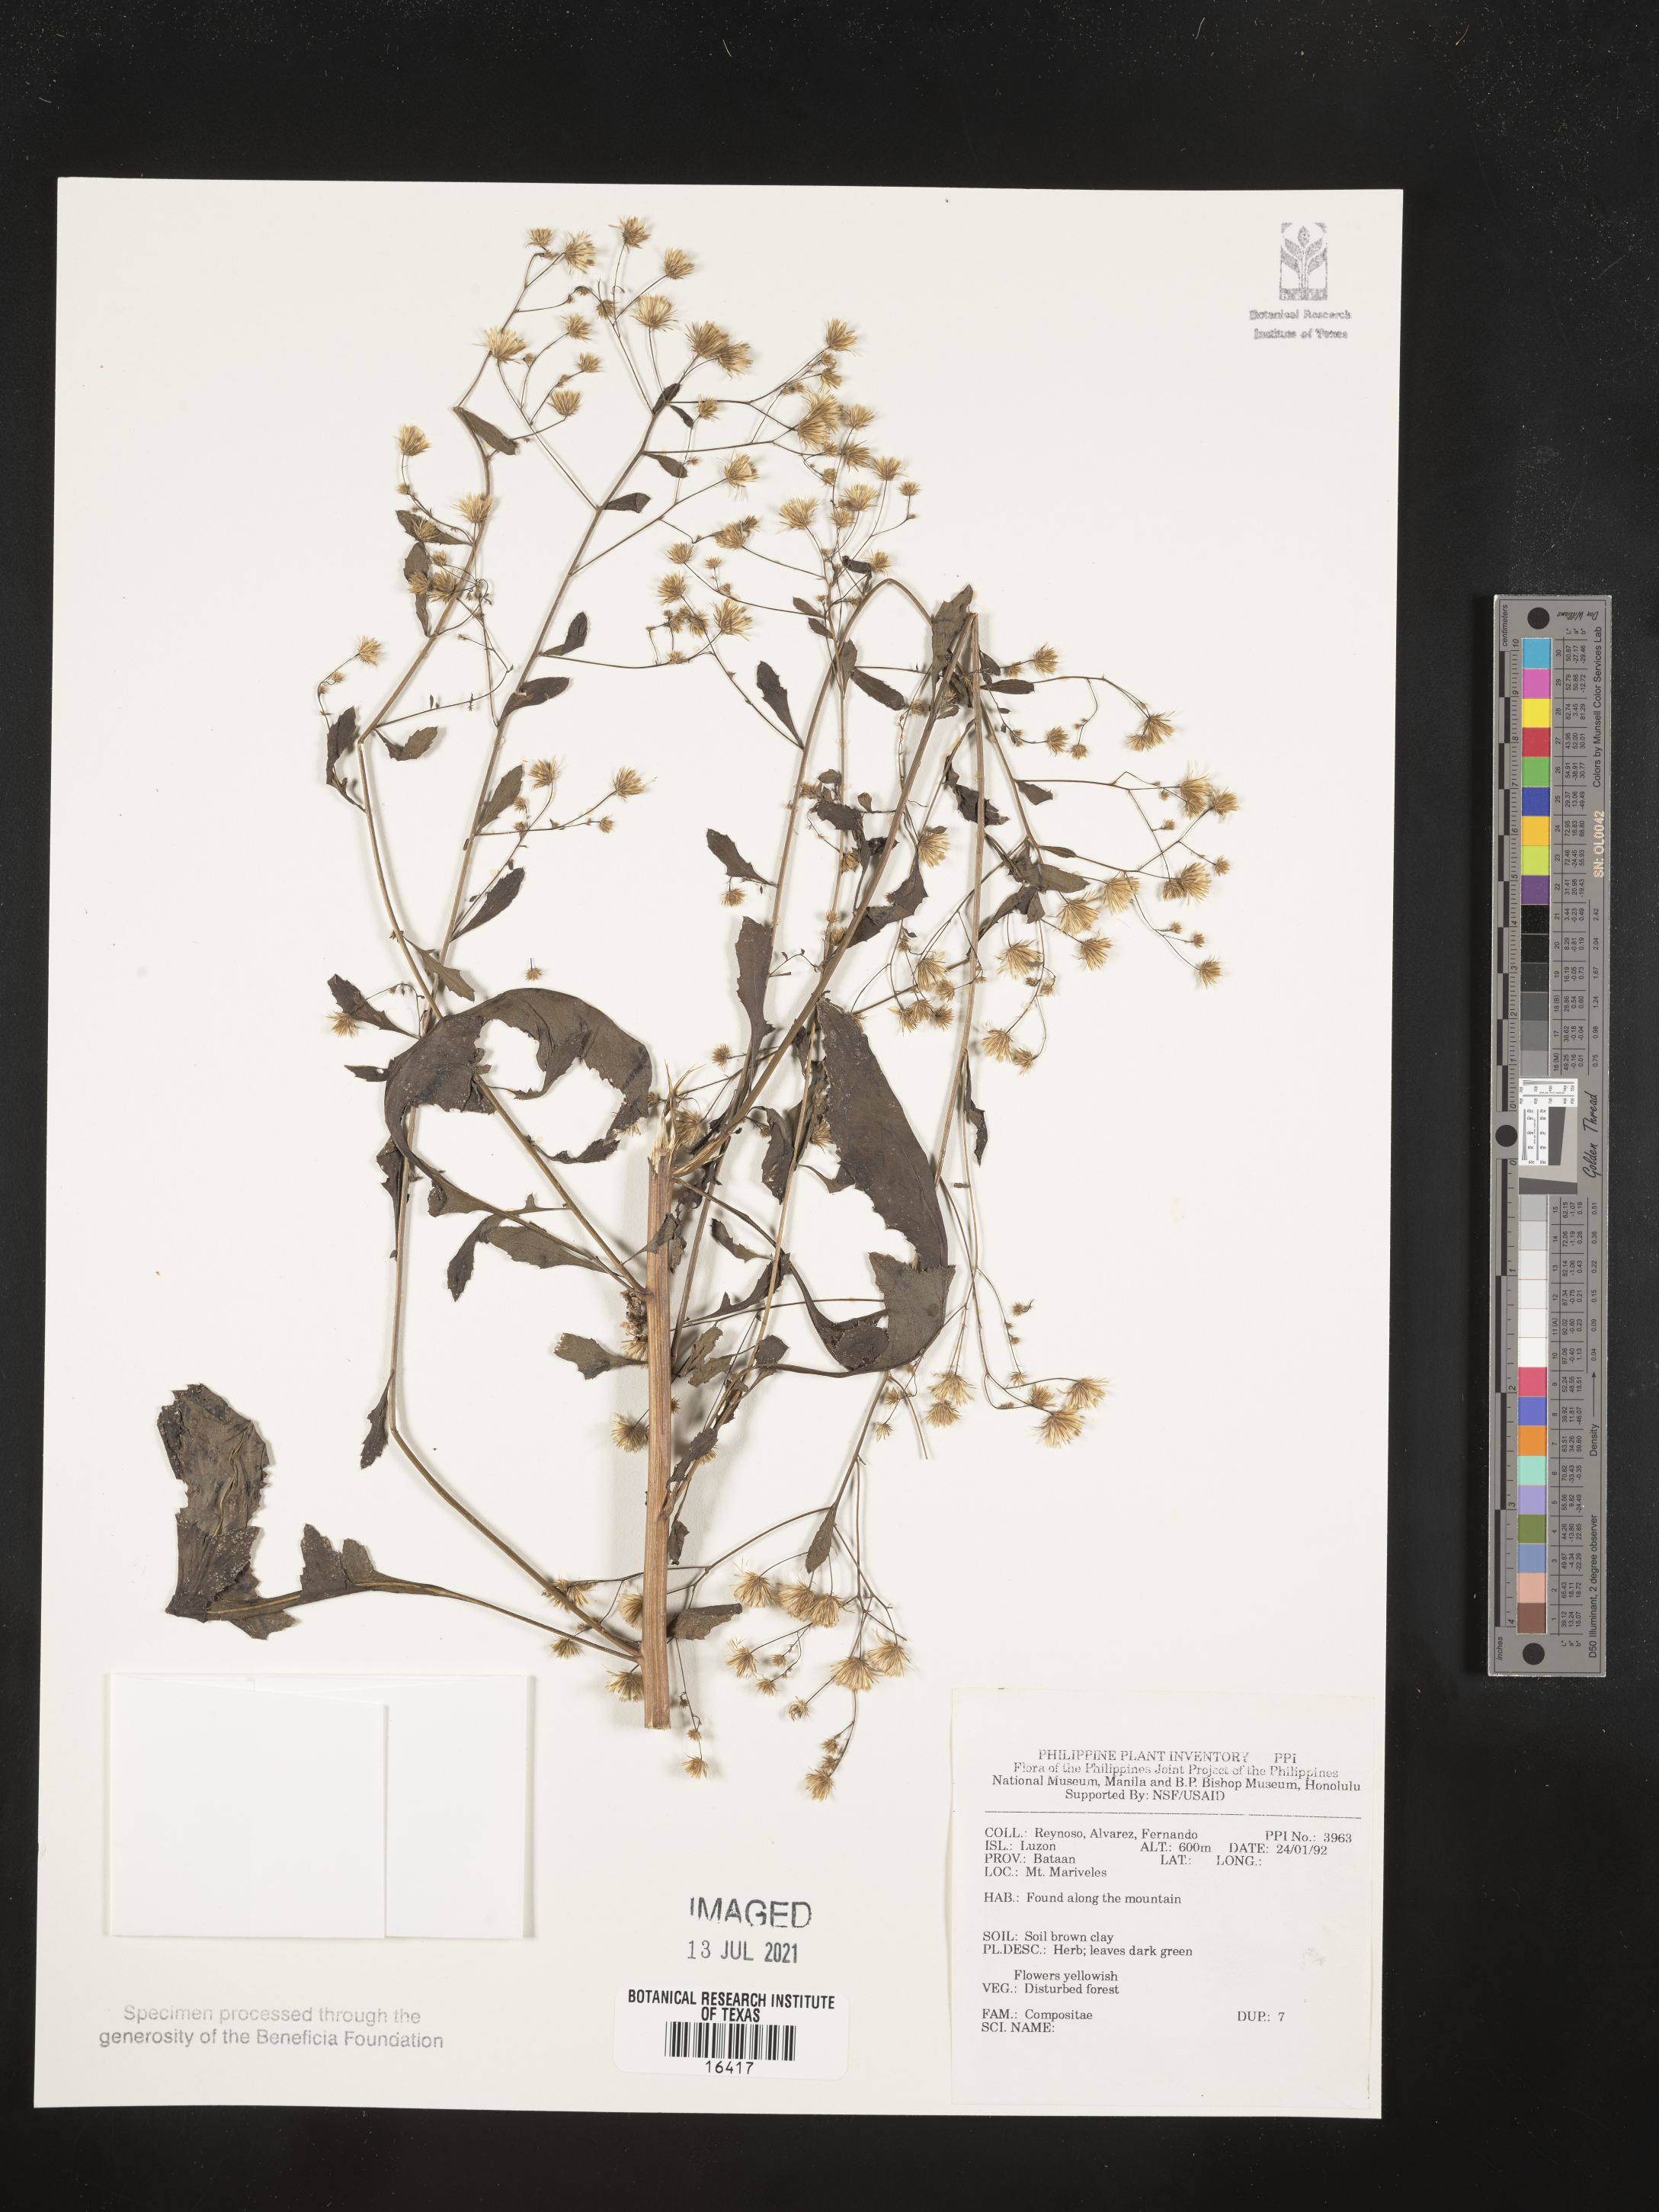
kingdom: Plantae
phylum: Tracheophyta
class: Magnoliopsida
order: Asterales
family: Asteraceae
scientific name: Asteraceae
